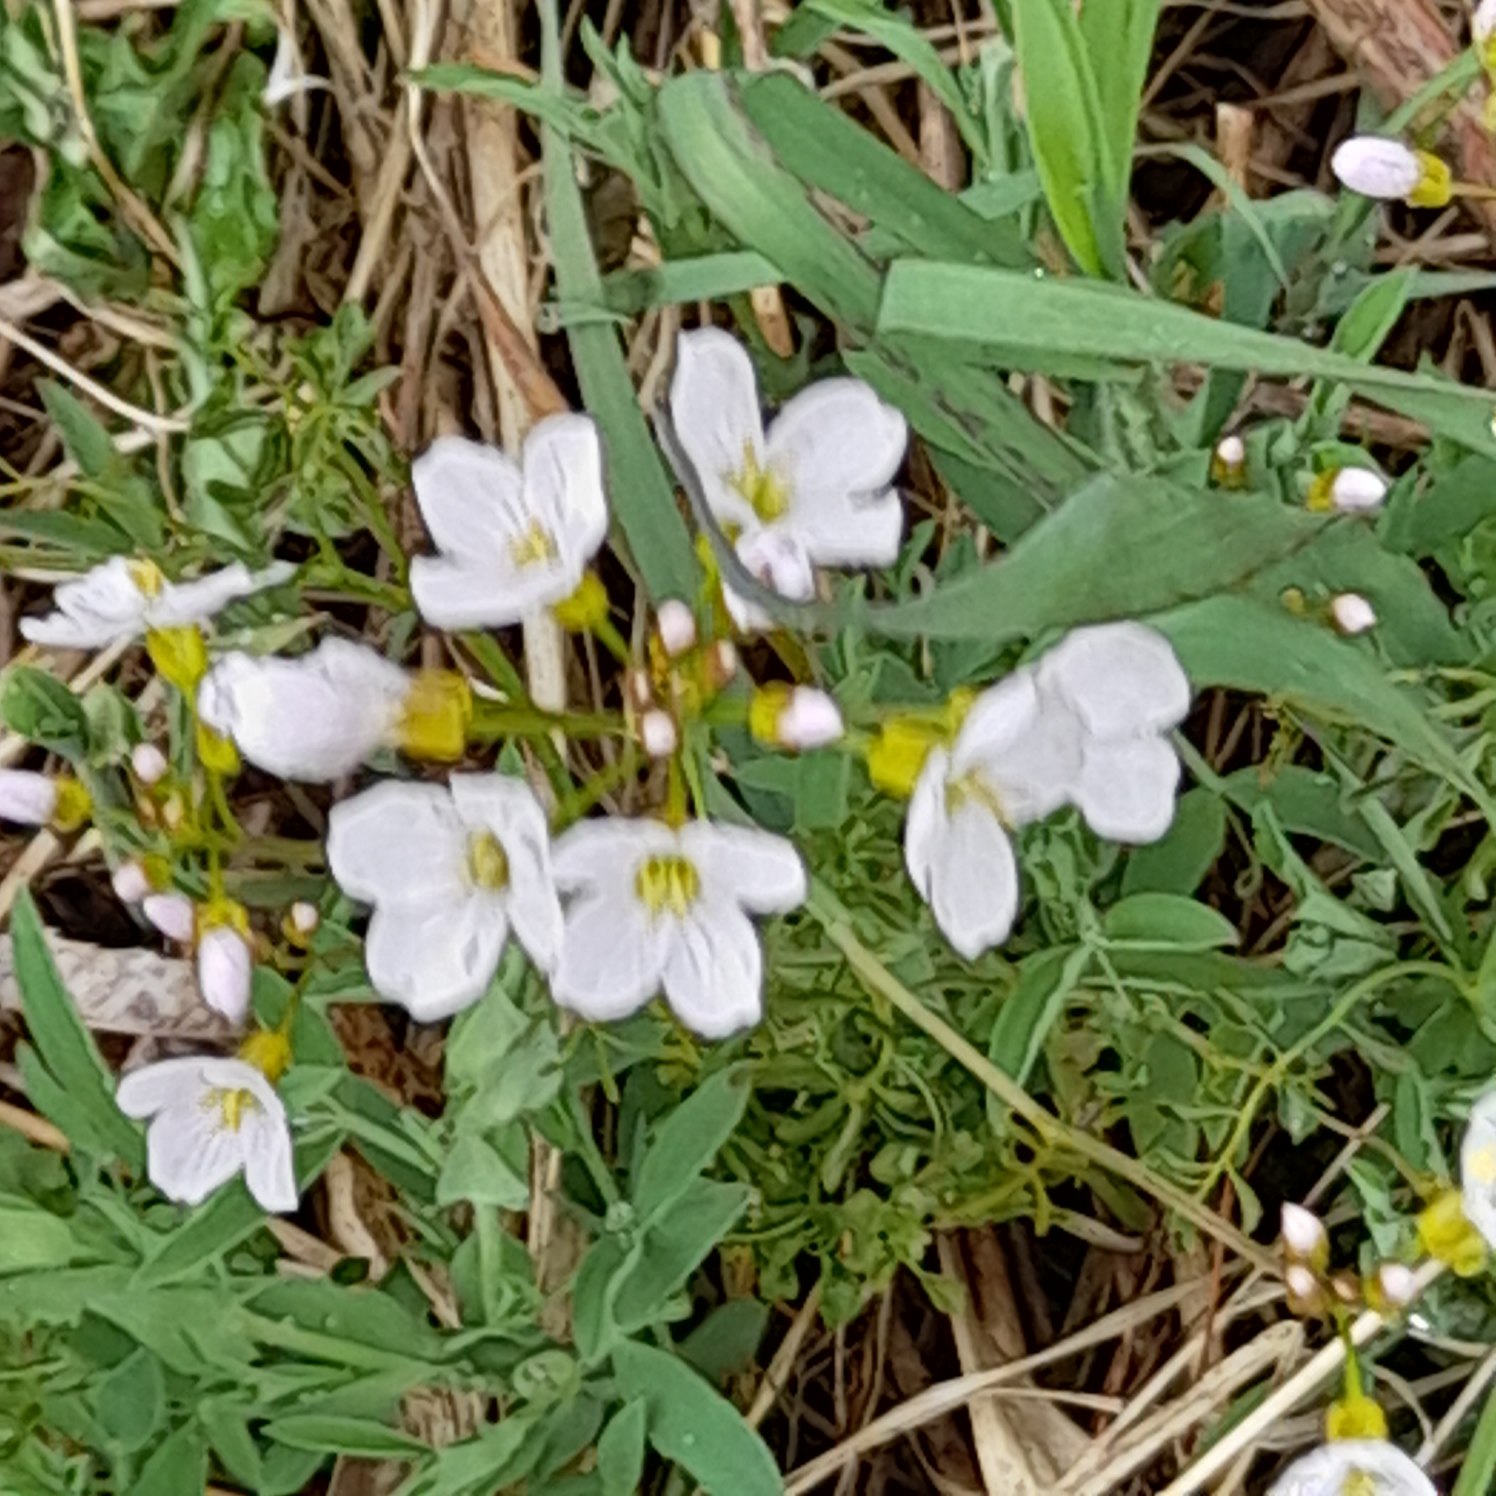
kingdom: Plantae
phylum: Tracheophyta
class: Magnoliopsida
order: Brassicales
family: Brassicaceae
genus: Cardamine
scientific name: Cardamine pratensis
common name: Engkarse
